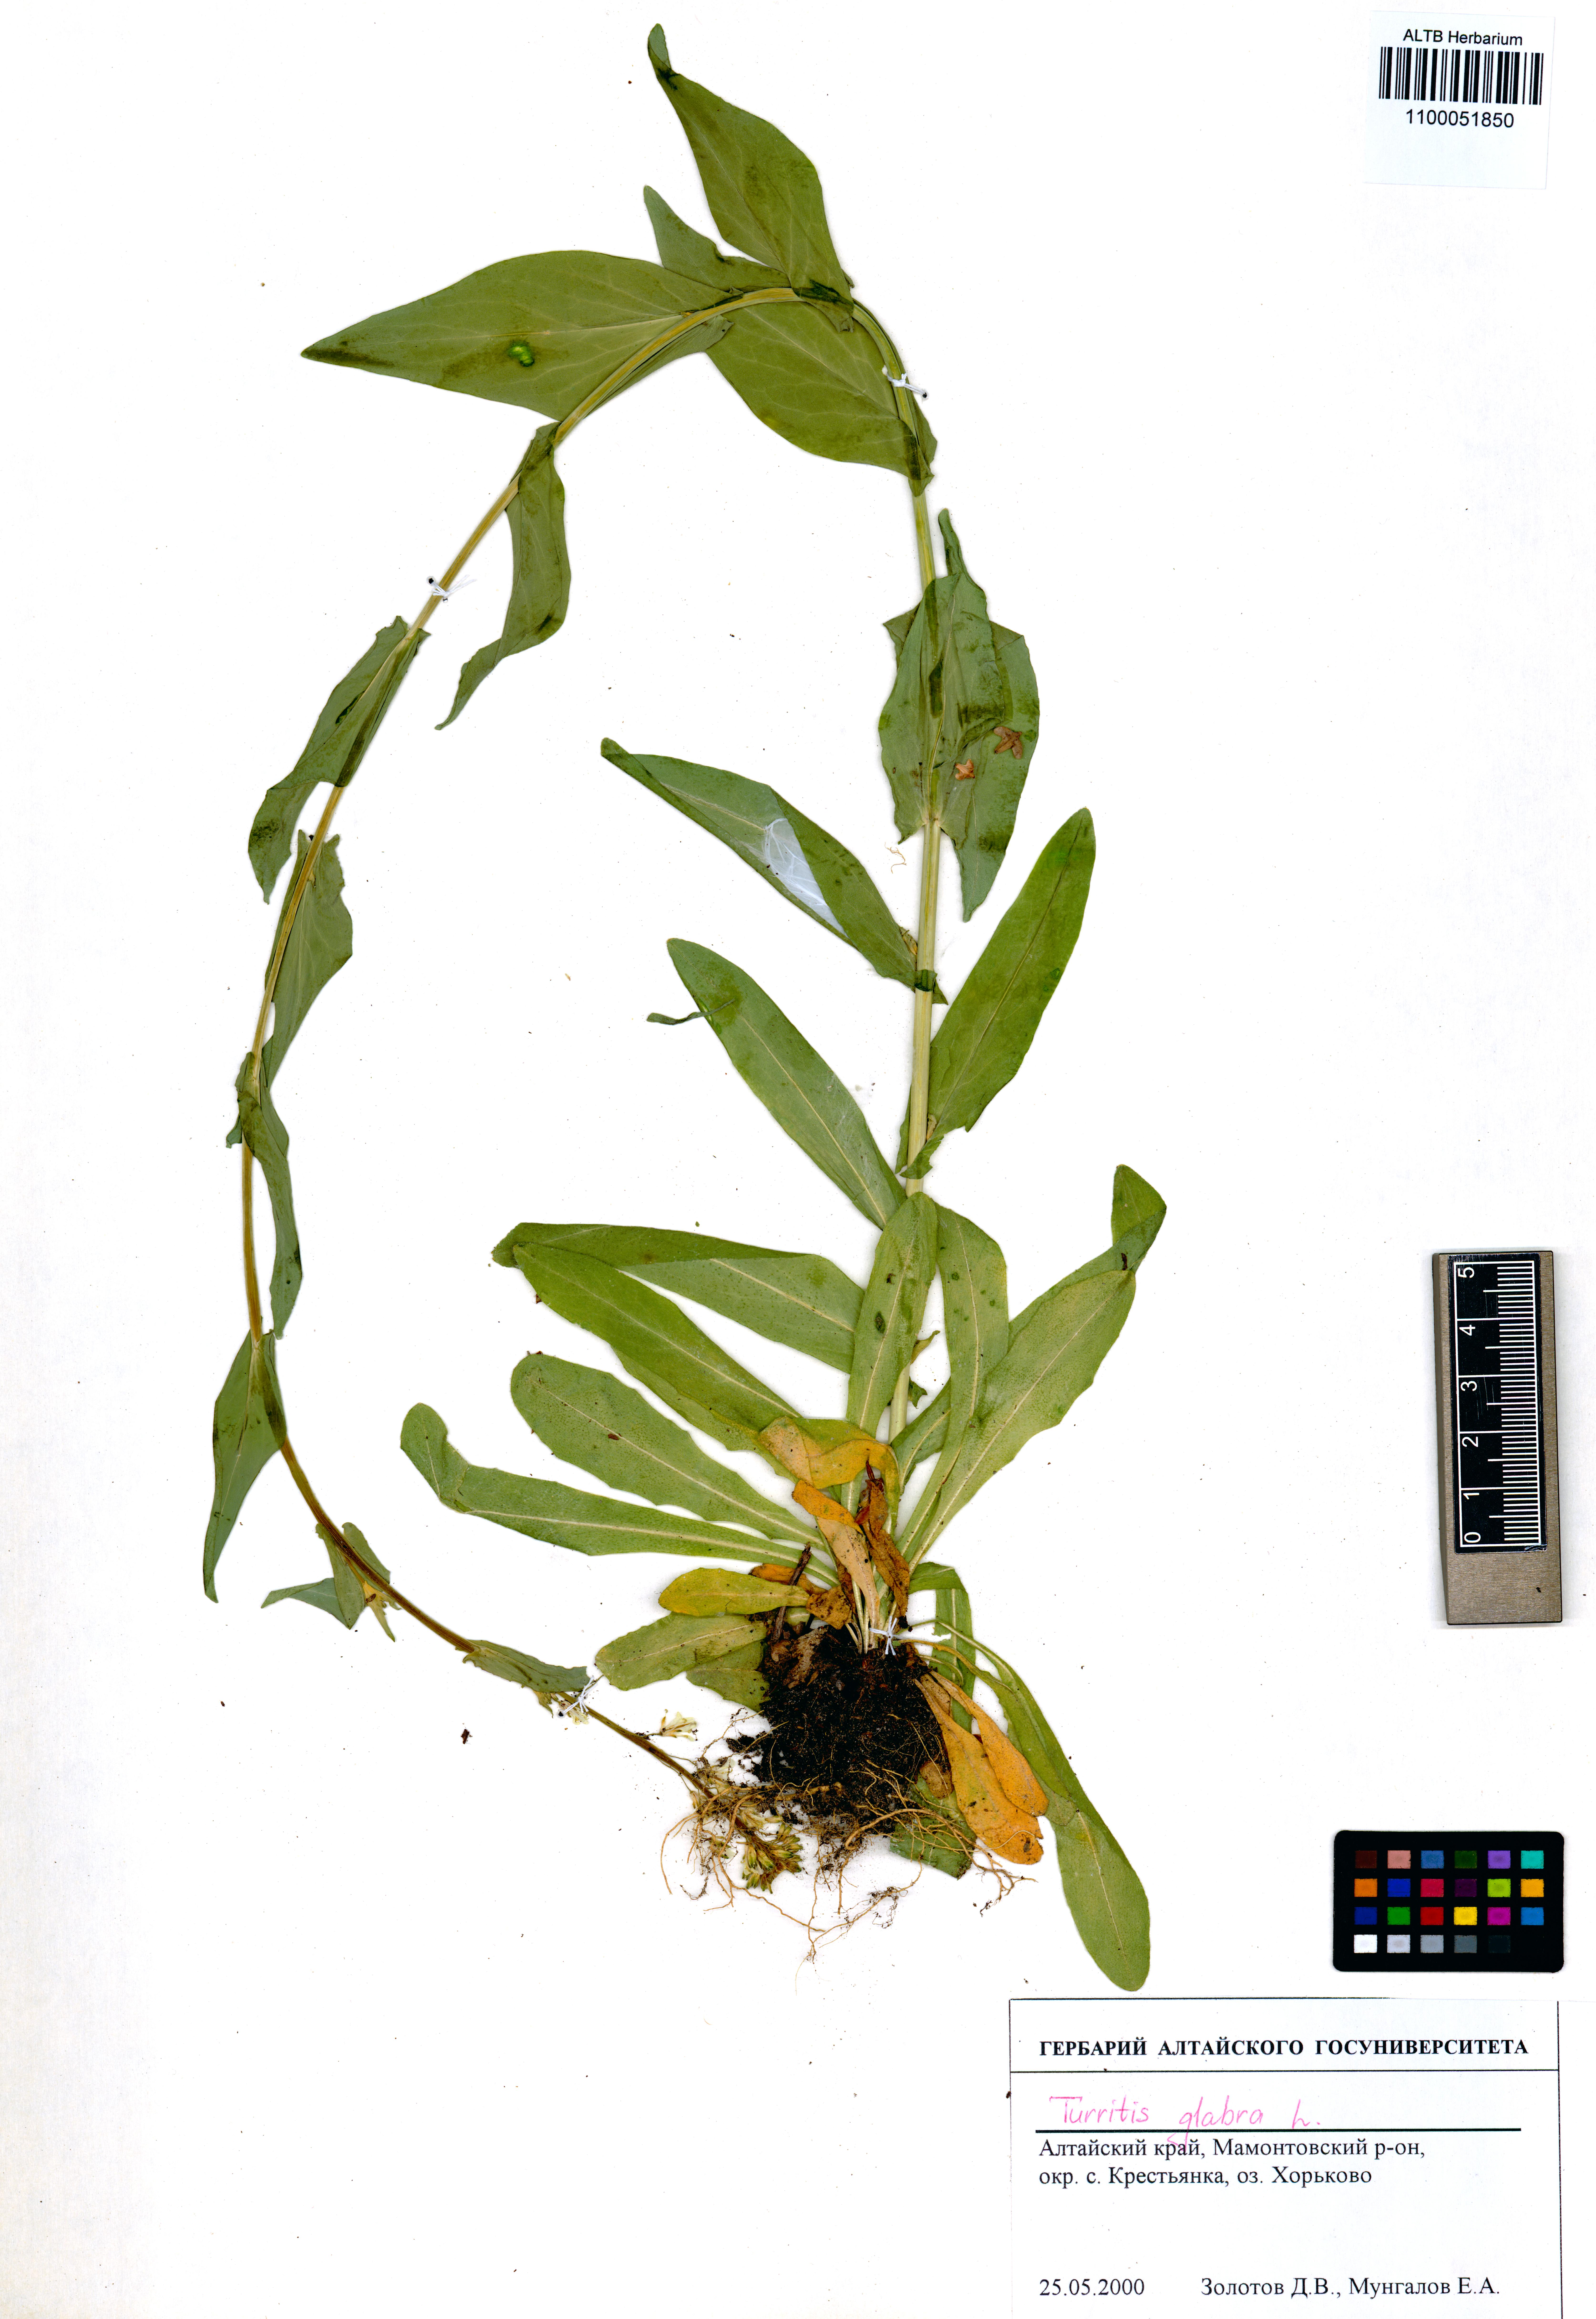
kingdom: Plantae
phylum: Tracheophyta
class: Magnoliopsida
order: Brassicales
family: Brassicaceae
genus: Turritis
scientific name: Turritis glabra
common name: Tower rockcress
